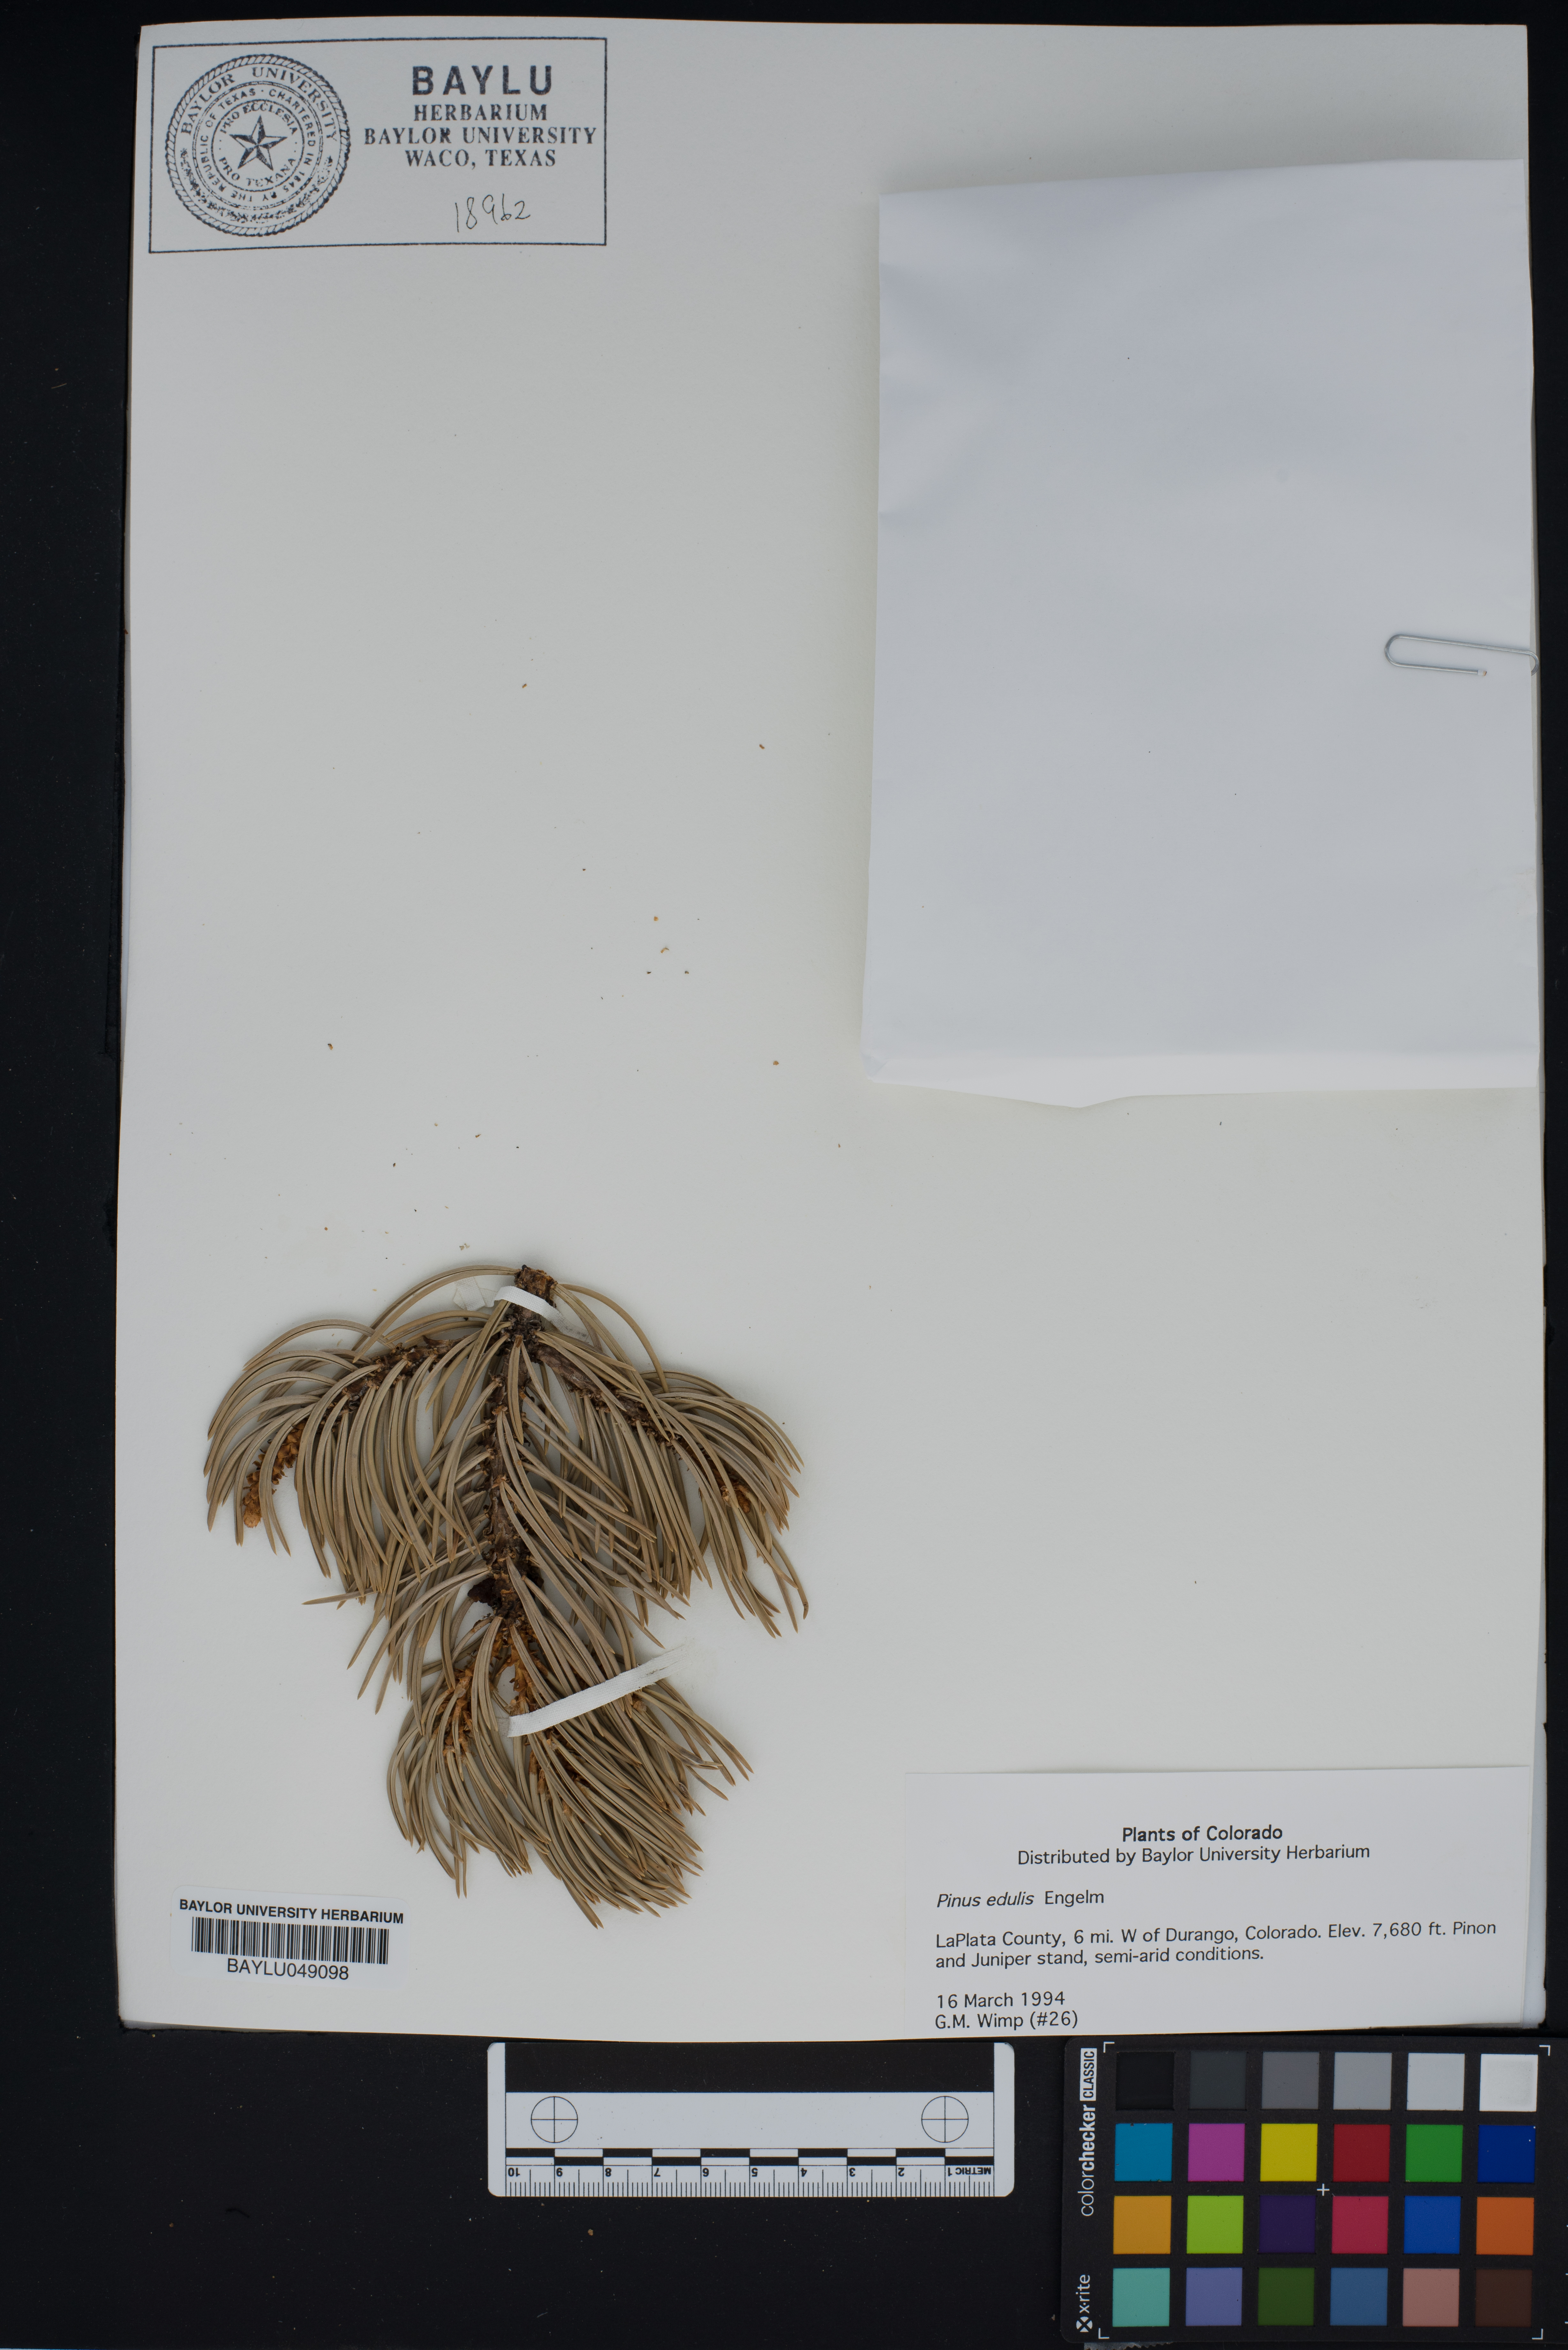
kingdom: Plantae
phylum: Tracheophyta
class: Pinopsida
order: Pinales
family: Pinaceae
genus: Pinus
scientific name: Pinus edulis
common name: Colorado pinyon
